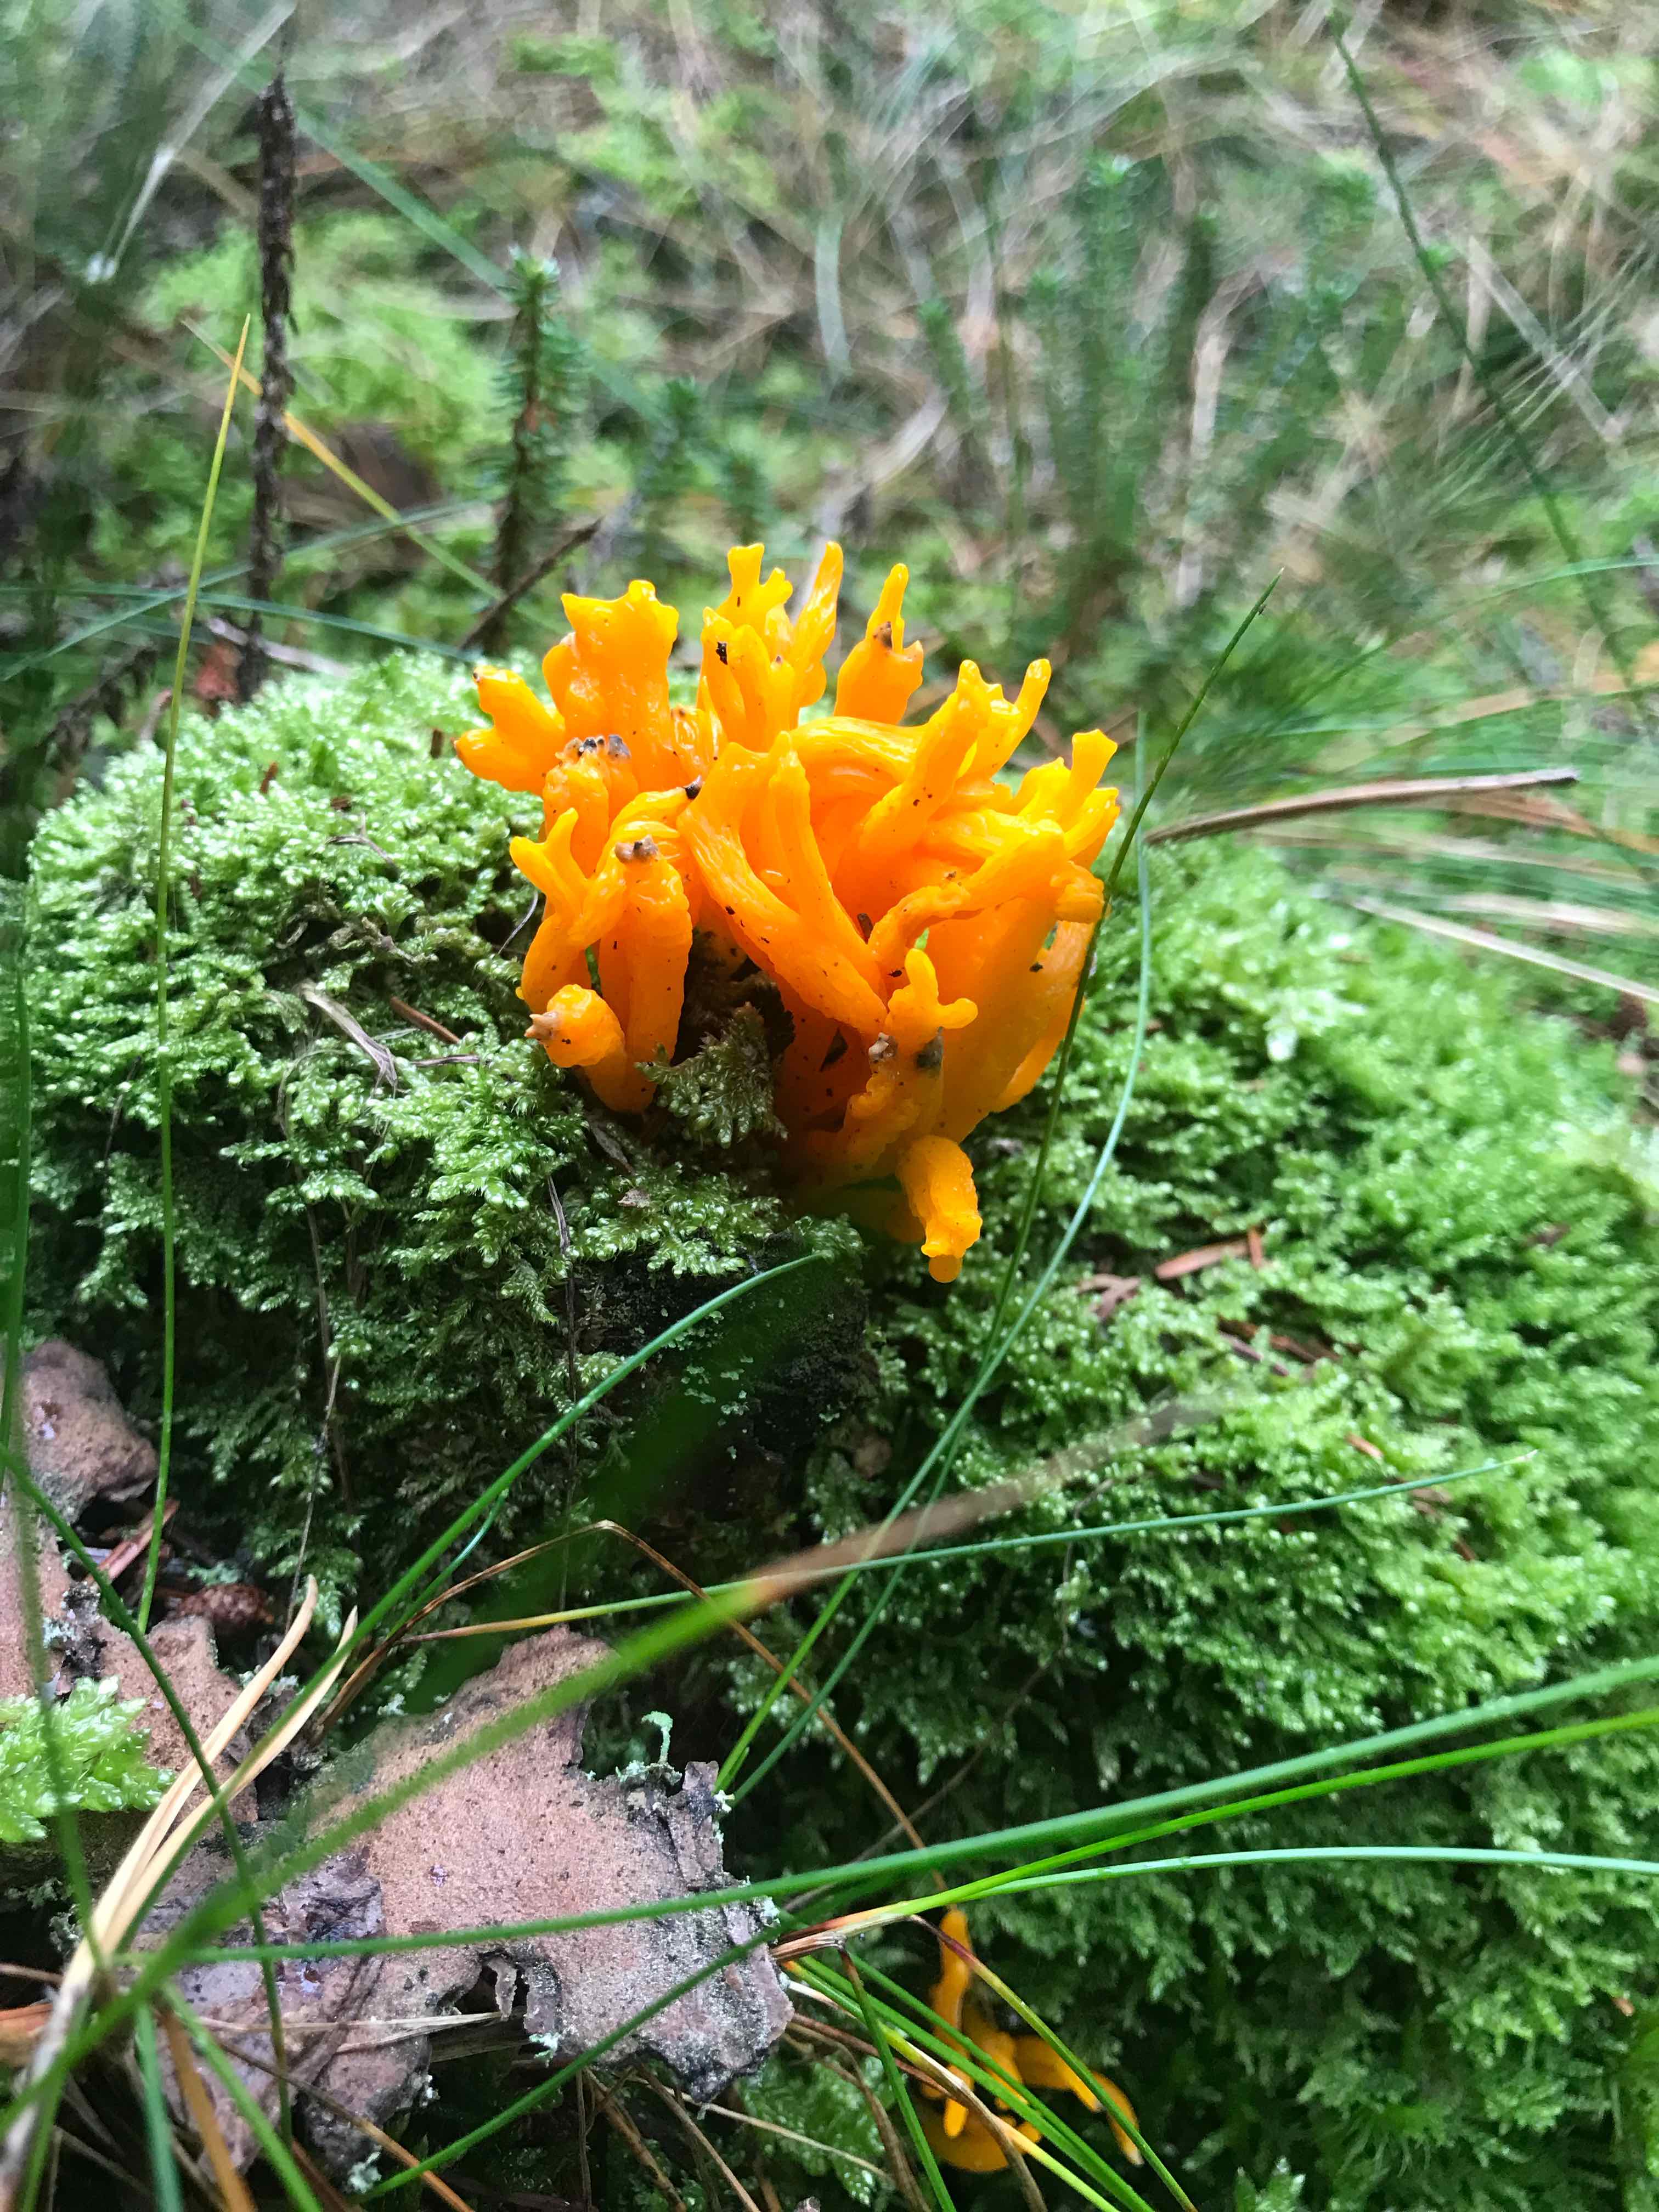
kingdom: Fungi
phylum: Basidiomycota
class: Dacrymycetes
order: Dacrymycetales
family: Dacrymycetaceae
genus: Calocera
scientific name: Calocera viscosa
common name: almindelig guldgaffel
